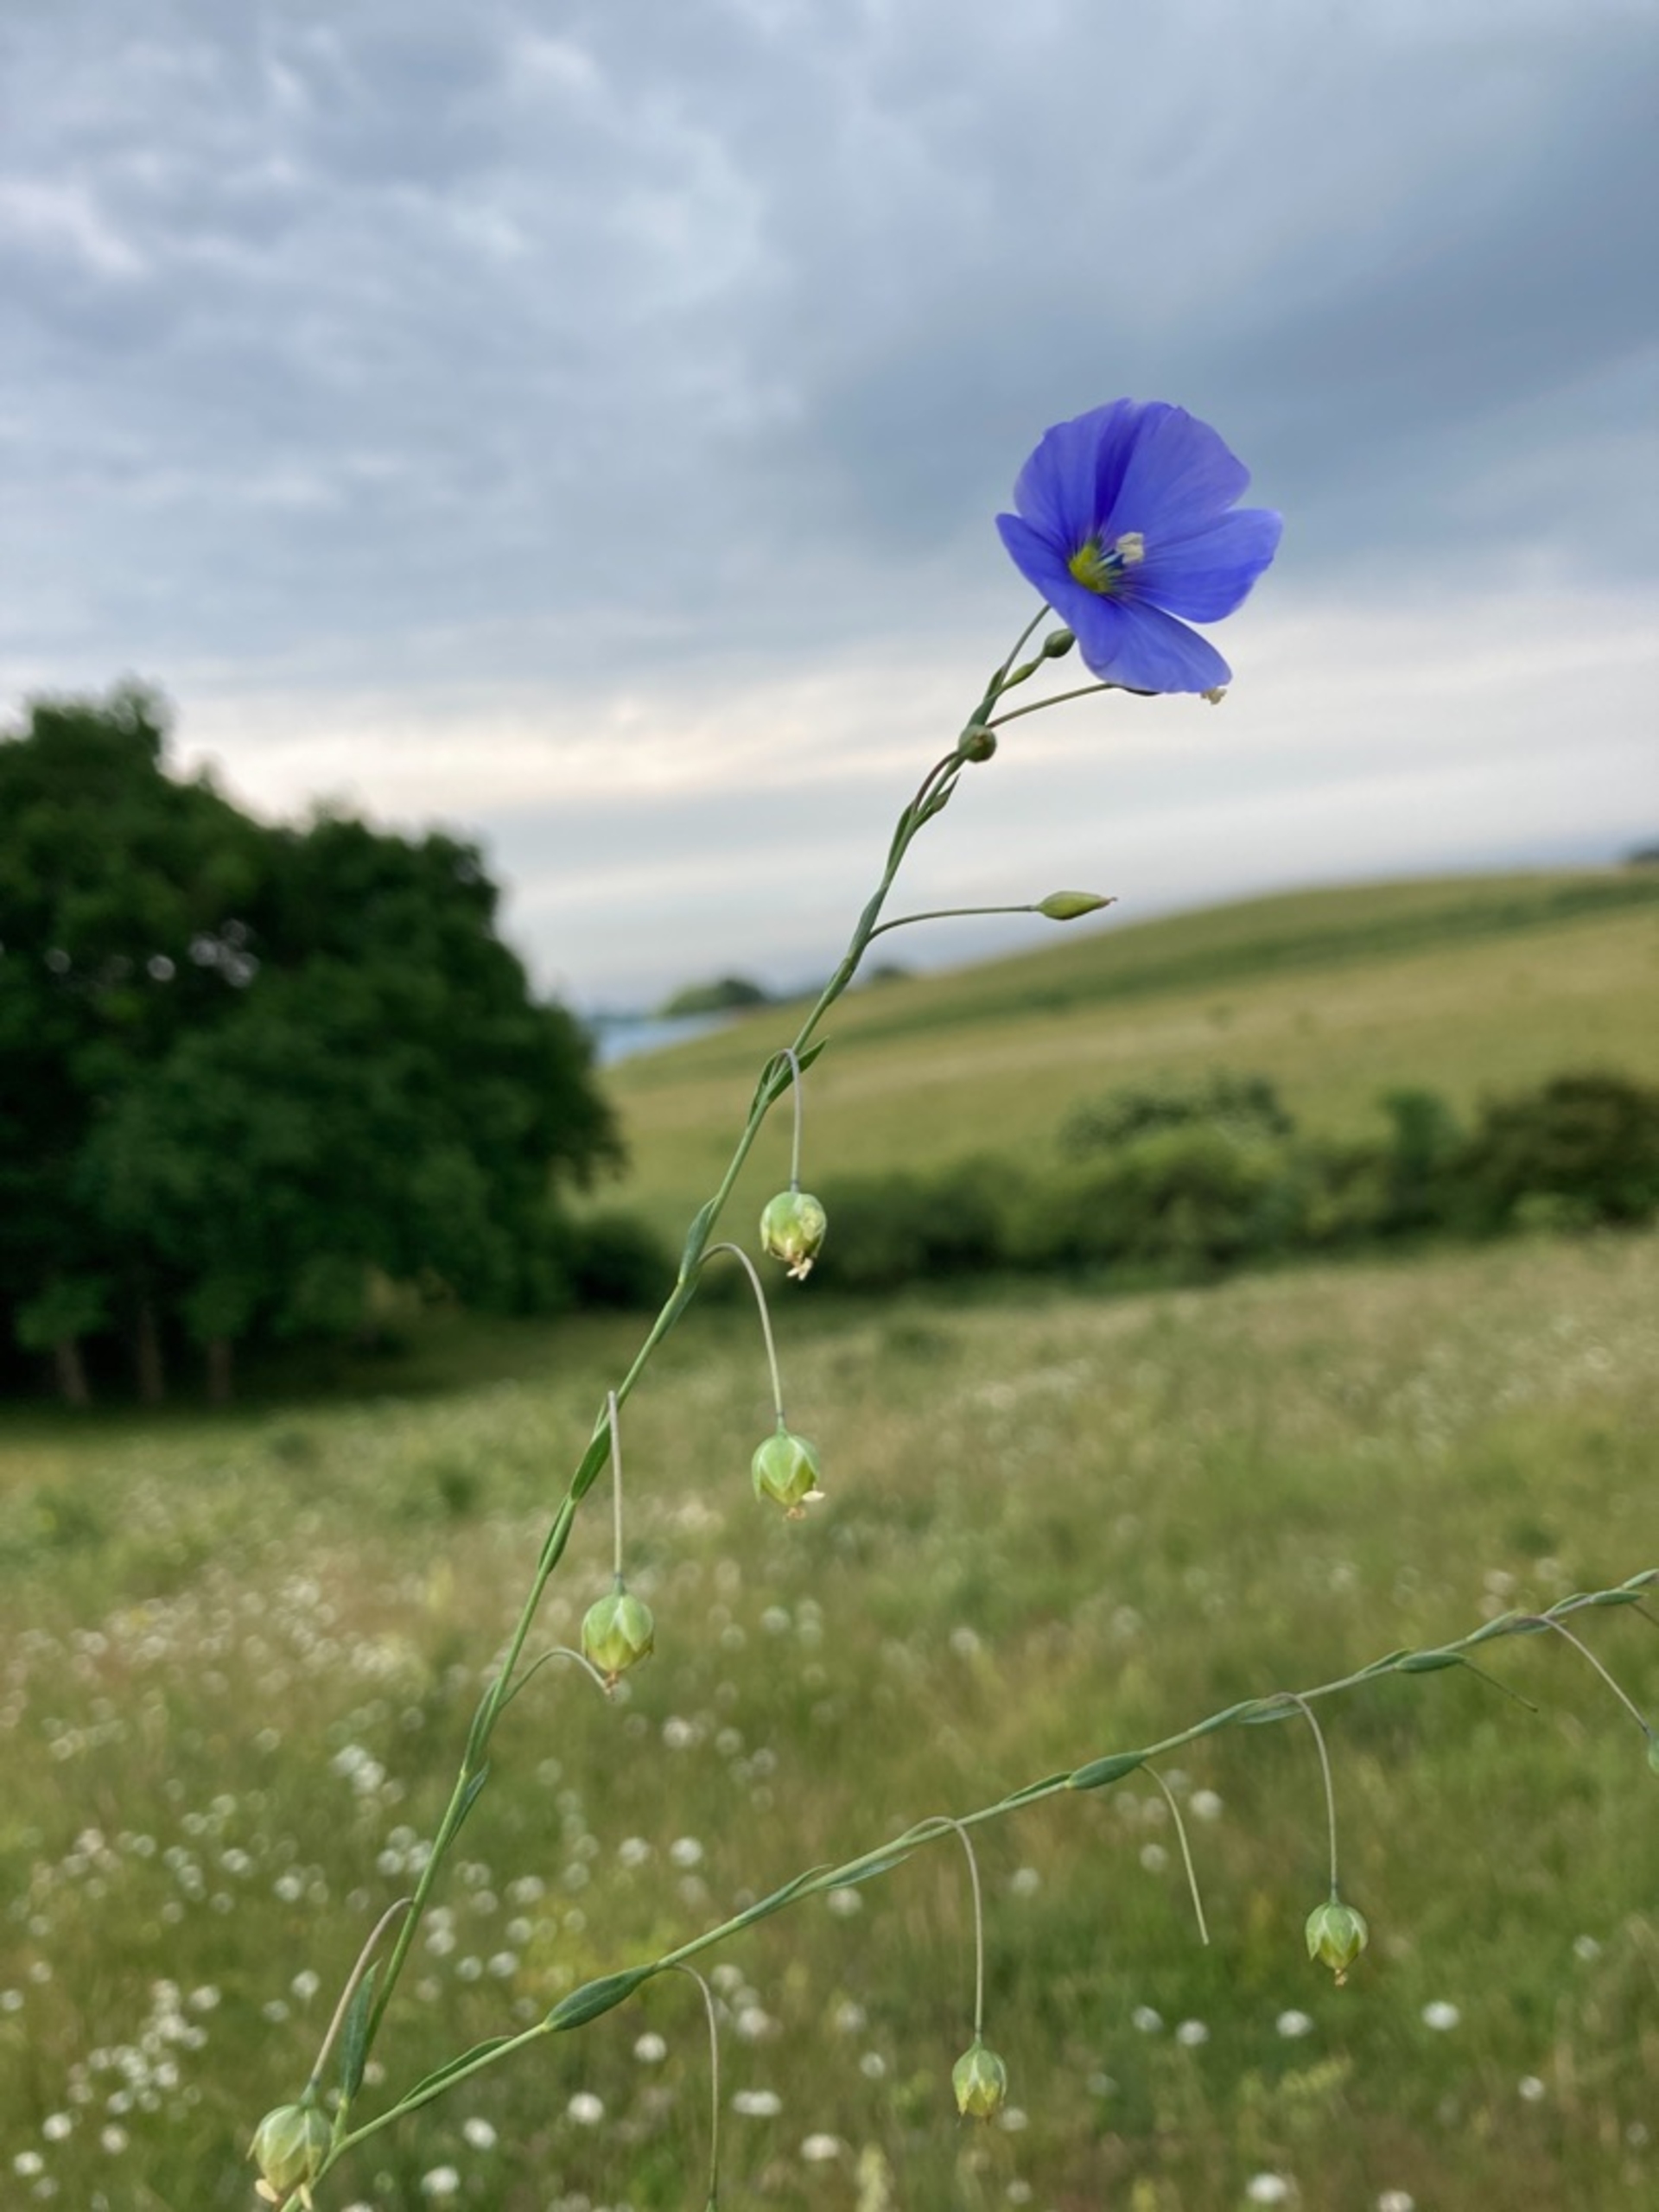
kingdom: Plantae
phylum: Tracheophyta
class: Magnoliopsida
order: Malpighiales
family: Linaceae
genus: Linum
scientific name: Linum austriacum
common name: Østrigsk hør
